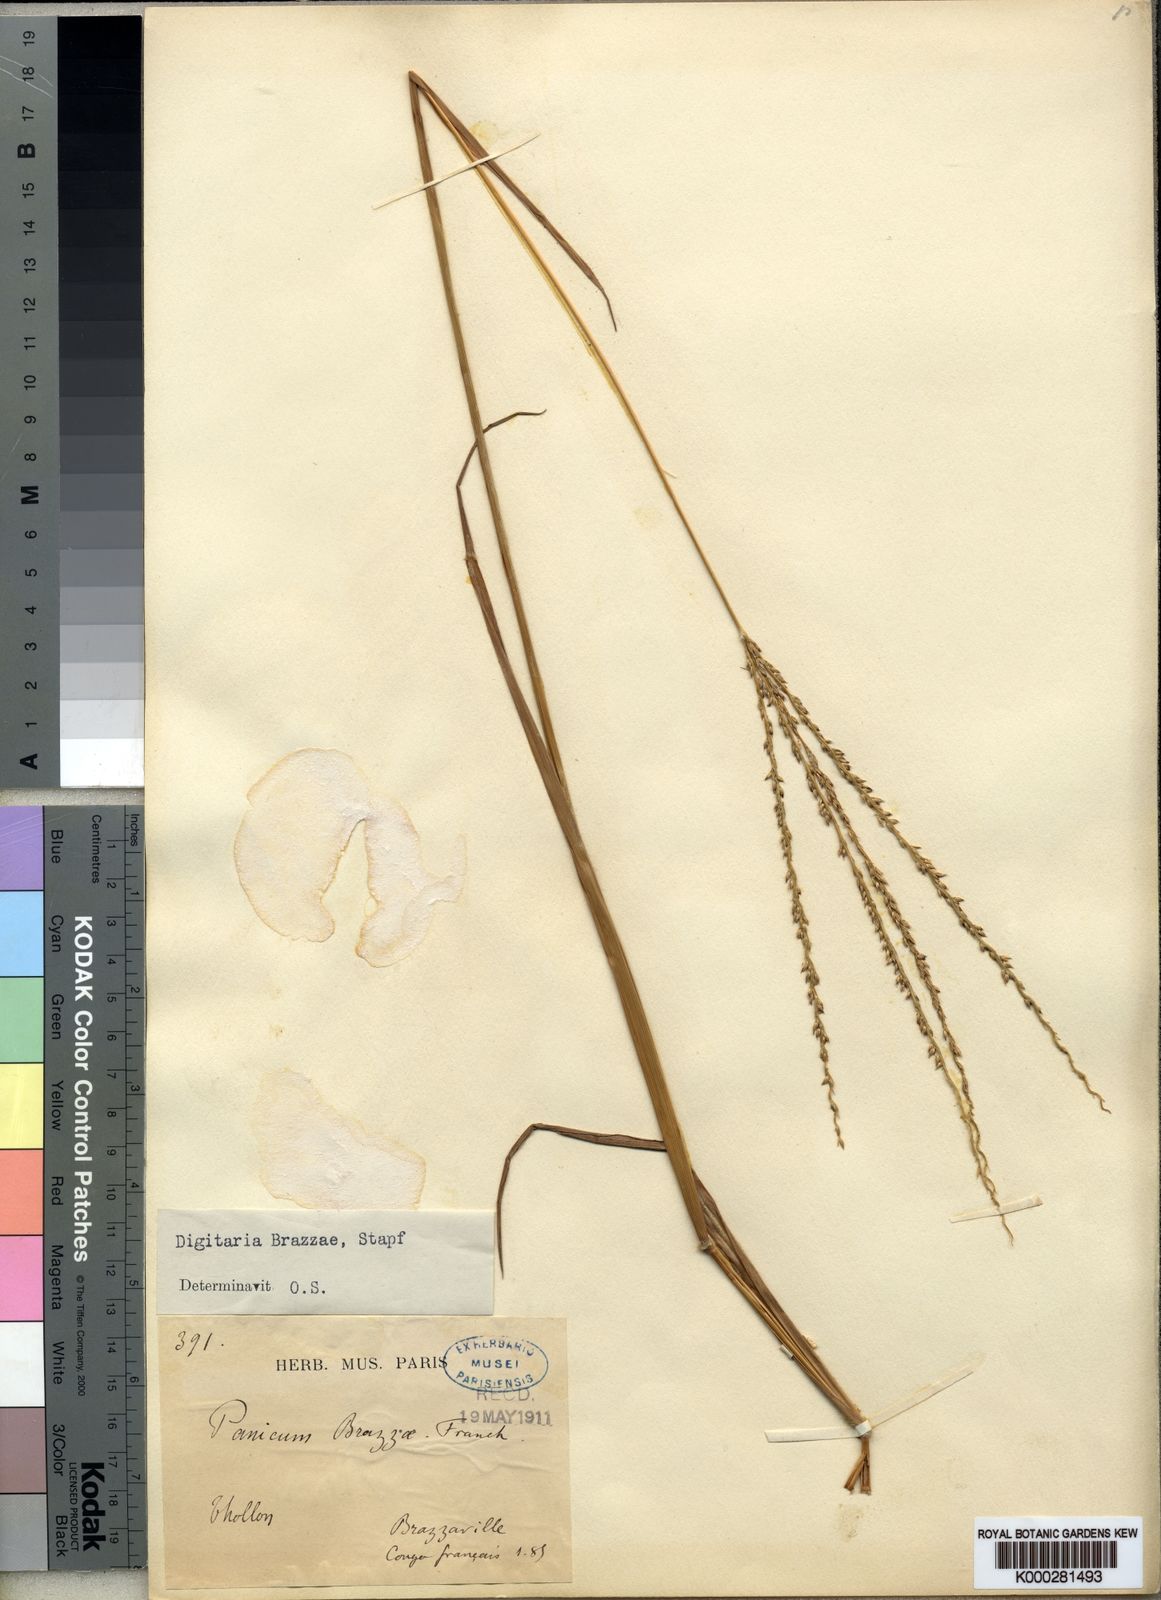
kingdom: Plantae
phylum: Tracheophyta
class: Liliopsida
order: Poales
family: Poaceae
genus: Digitaria
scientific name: Digitaria brazzae
